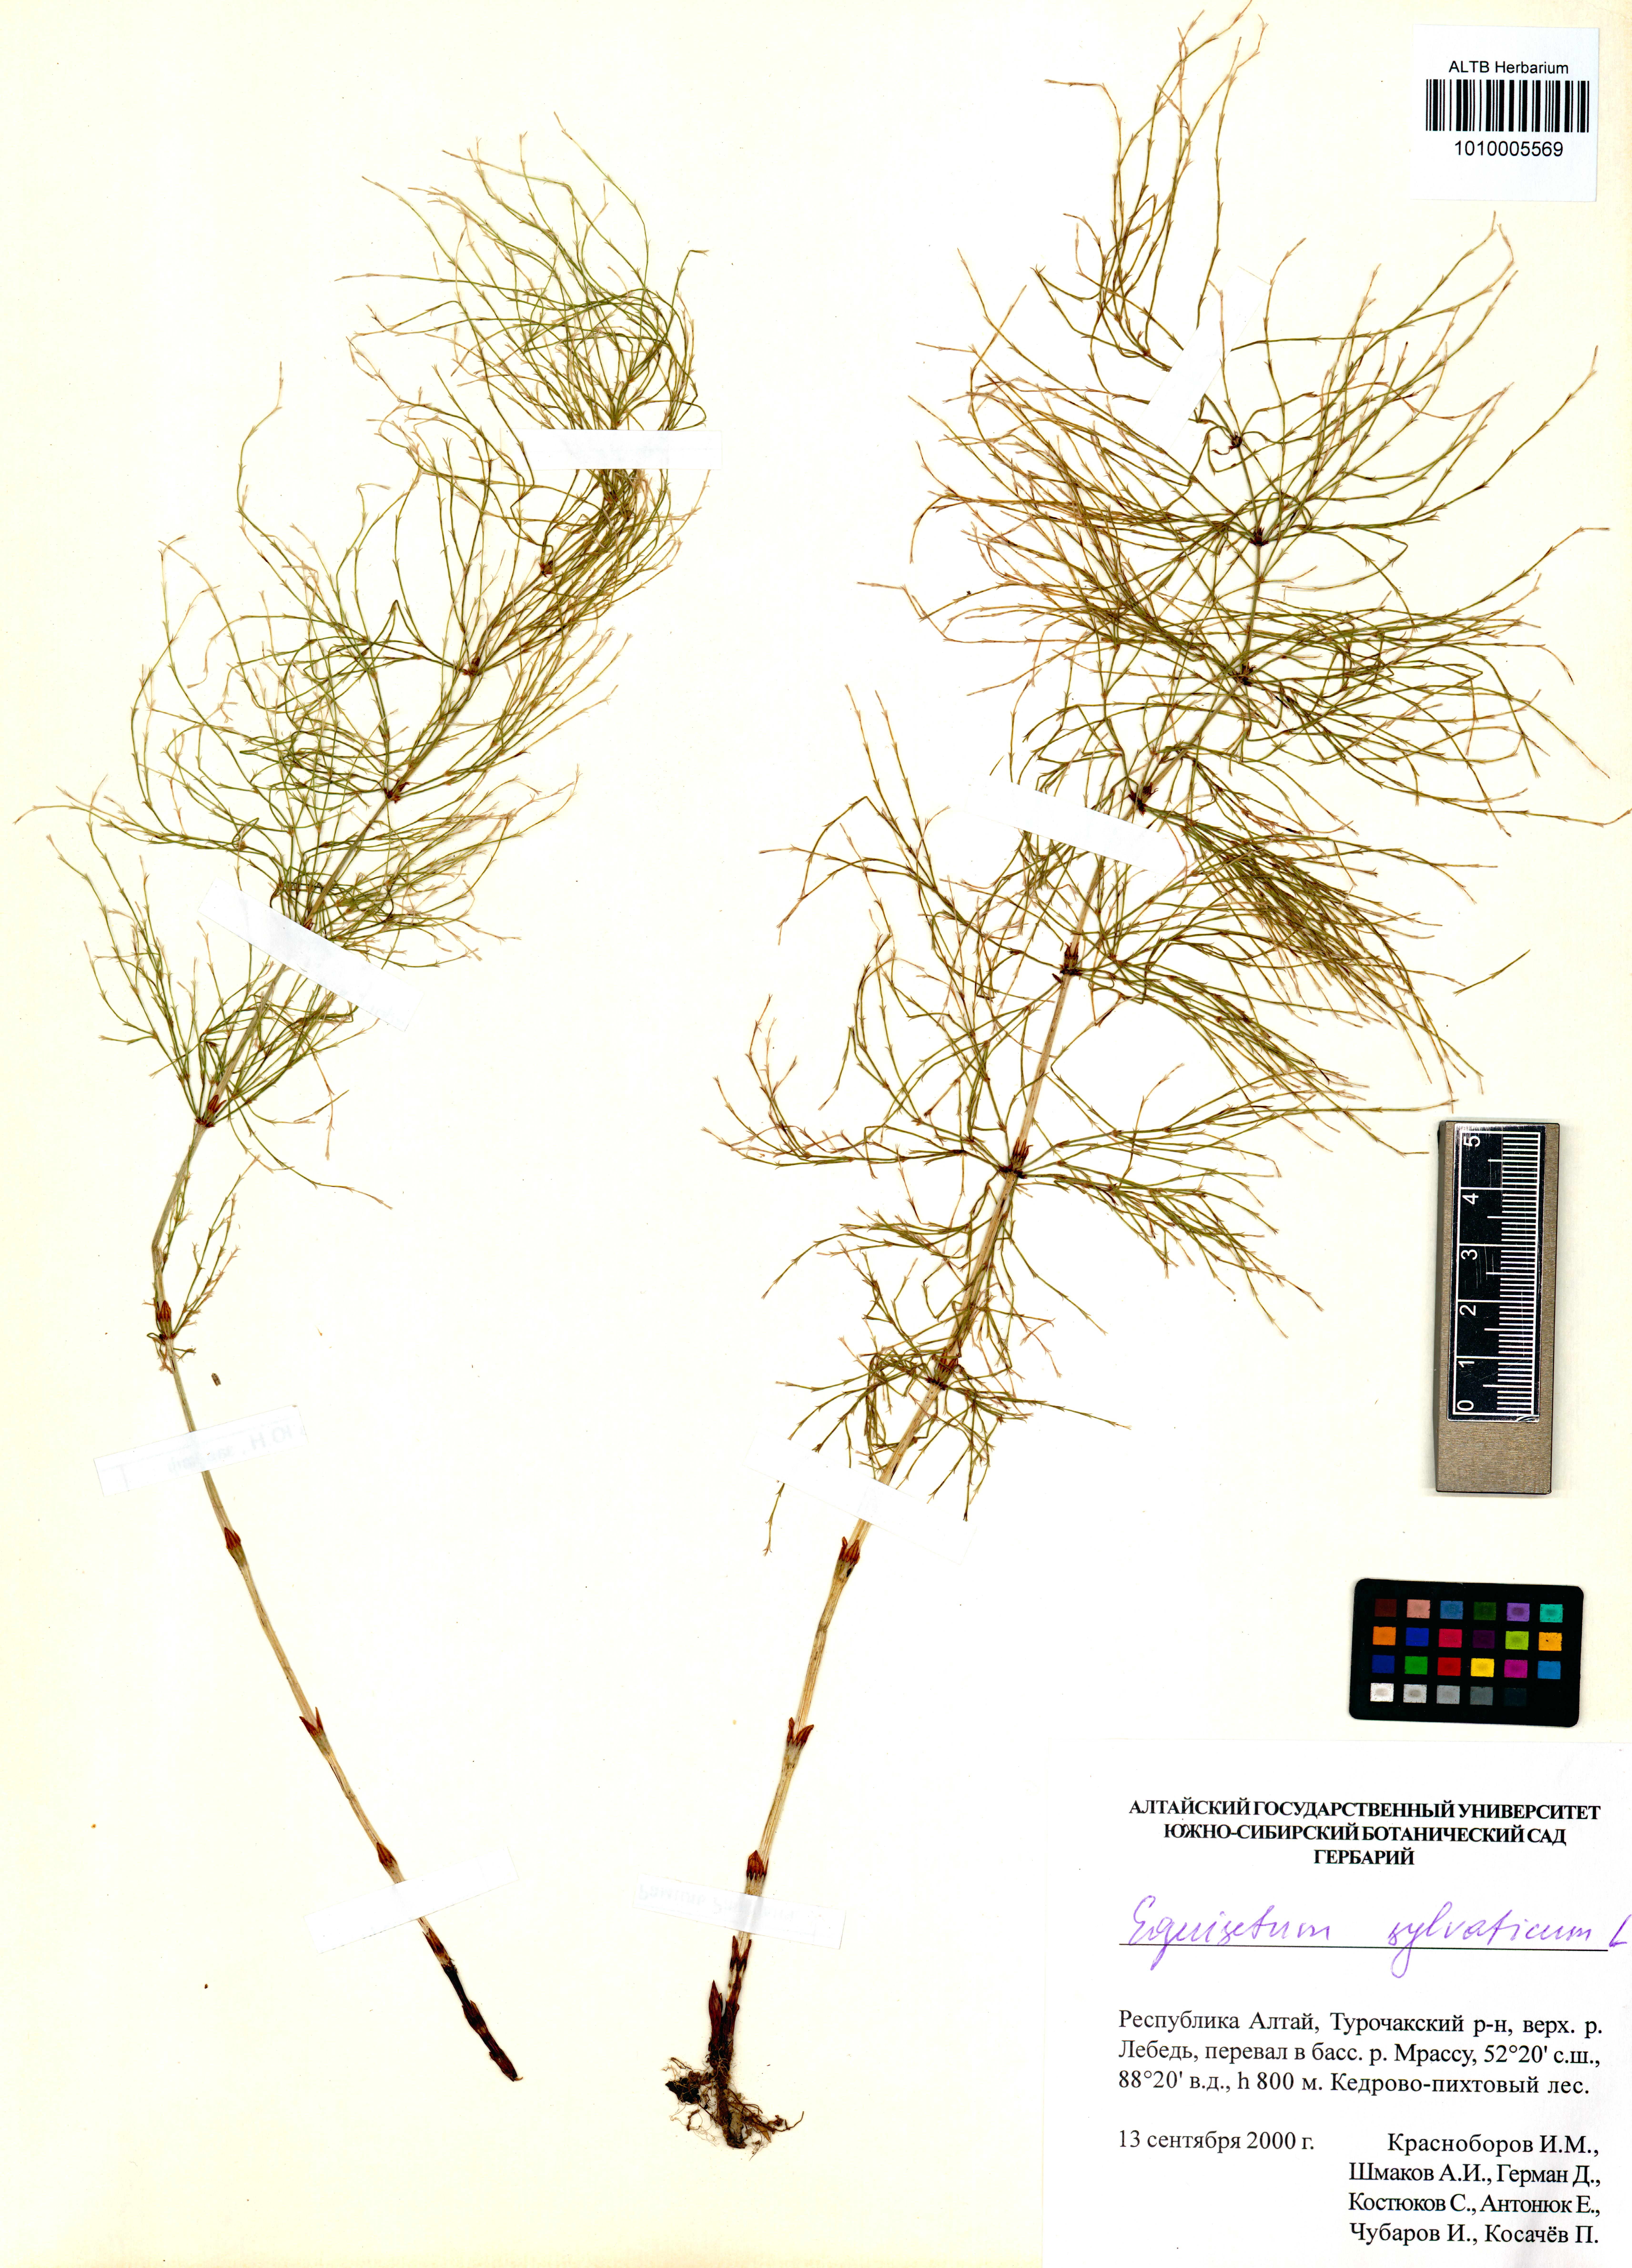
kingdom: Plantae
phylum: Tracheophyta
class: Polypodiopsida
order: Equisetales
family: Equisetaceae
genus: Equisetum
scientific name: Equisetum sylvaticum
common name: Wood horsetail
